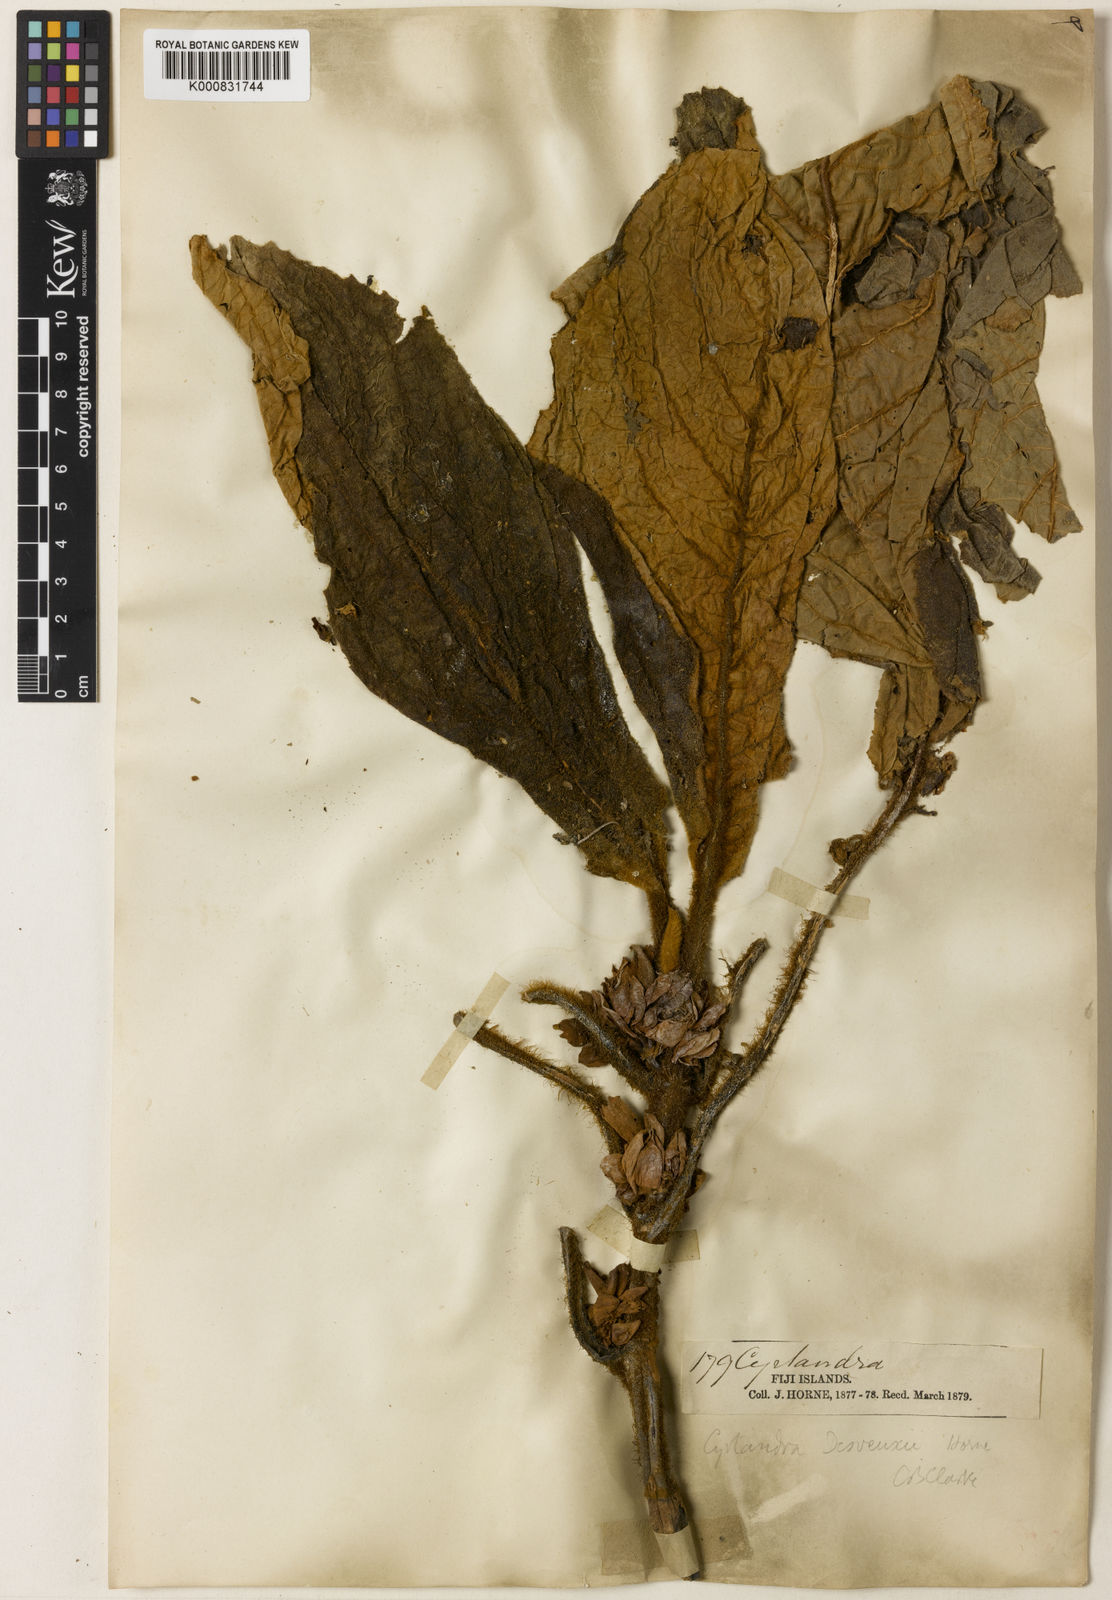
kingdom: Plantae
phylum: Tracheophyta
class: Magnoliopsida
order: Lamiales
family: Gesneriaceae
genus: Cyrtandra
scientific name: Cyrtandra milnei
